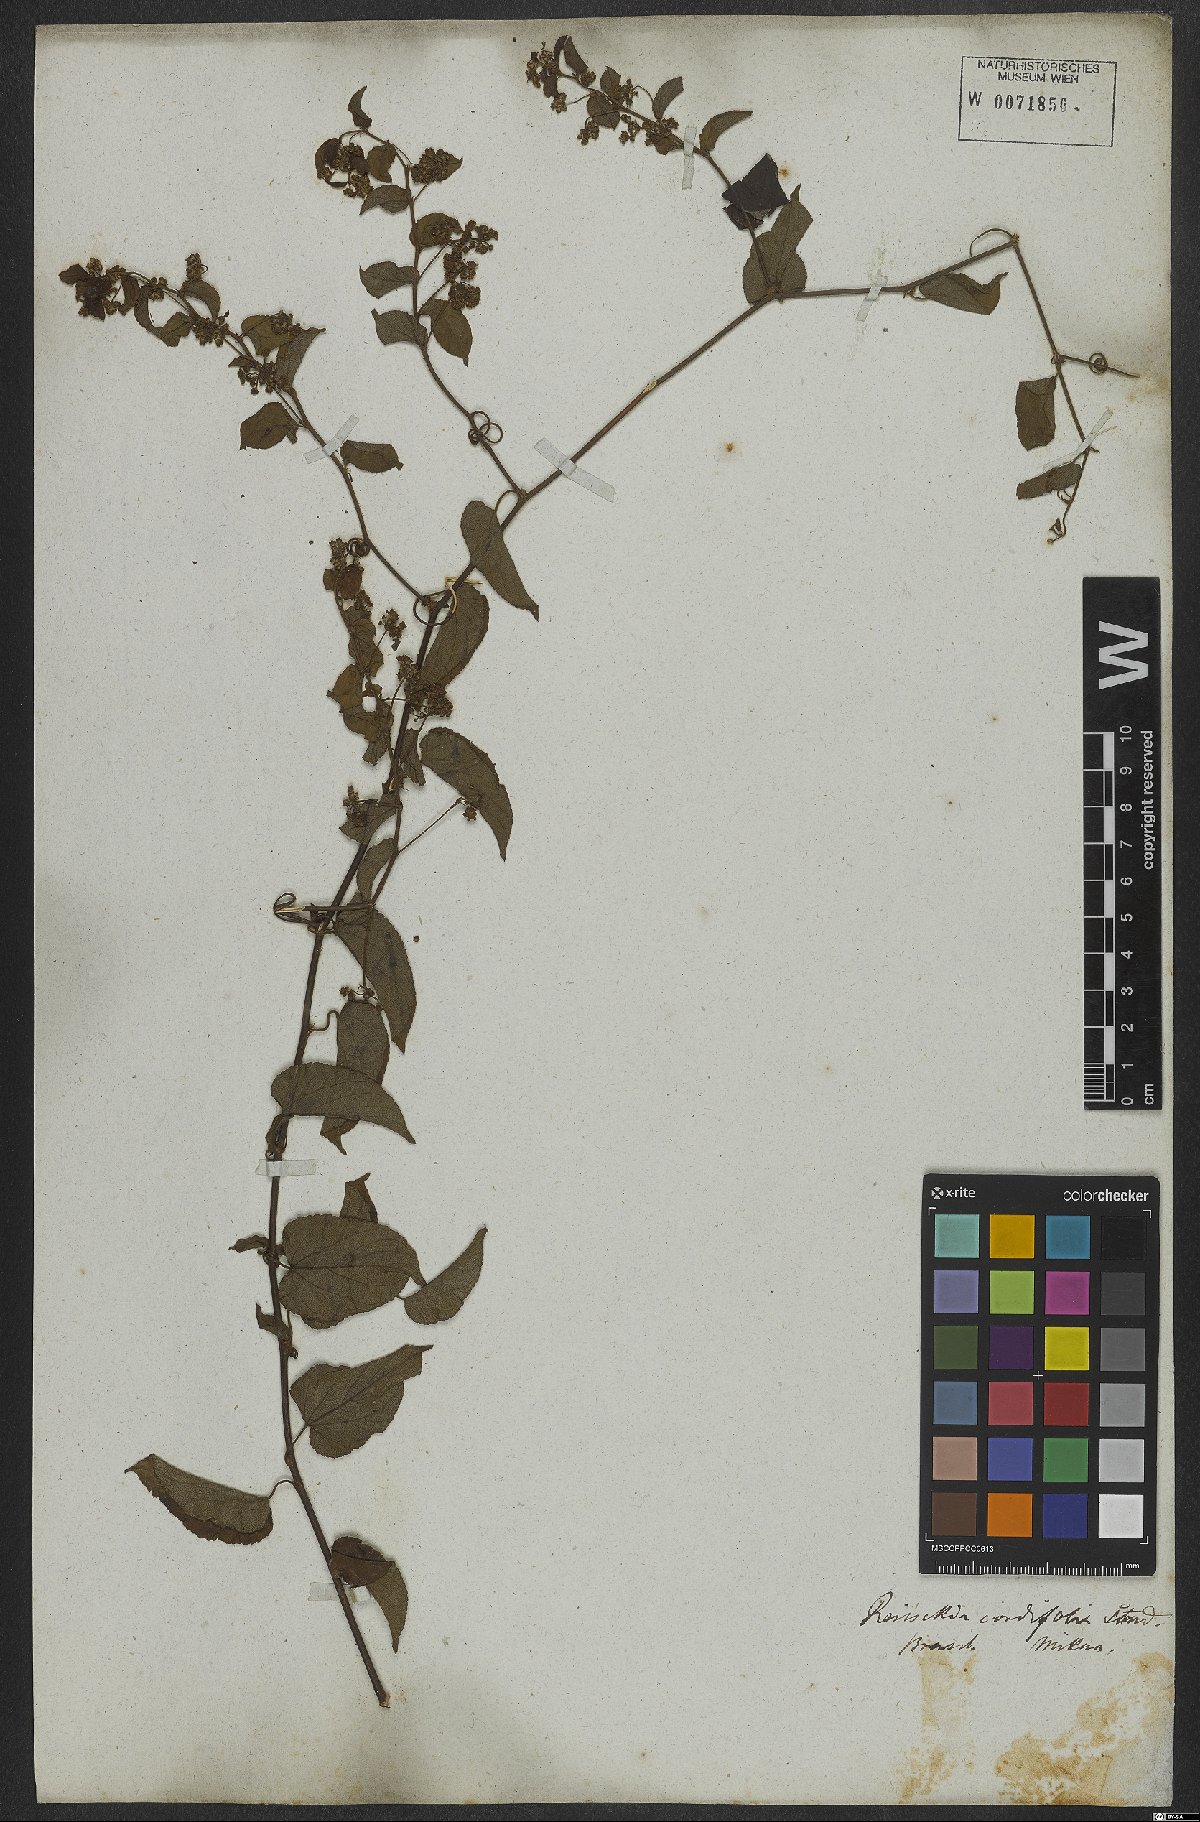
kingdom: Plantae
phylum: Tracheophyta
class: Magnoliopsida
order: Rosales
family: Rhamnaceae
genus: Reissekia
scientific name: Reissekia smilacina
